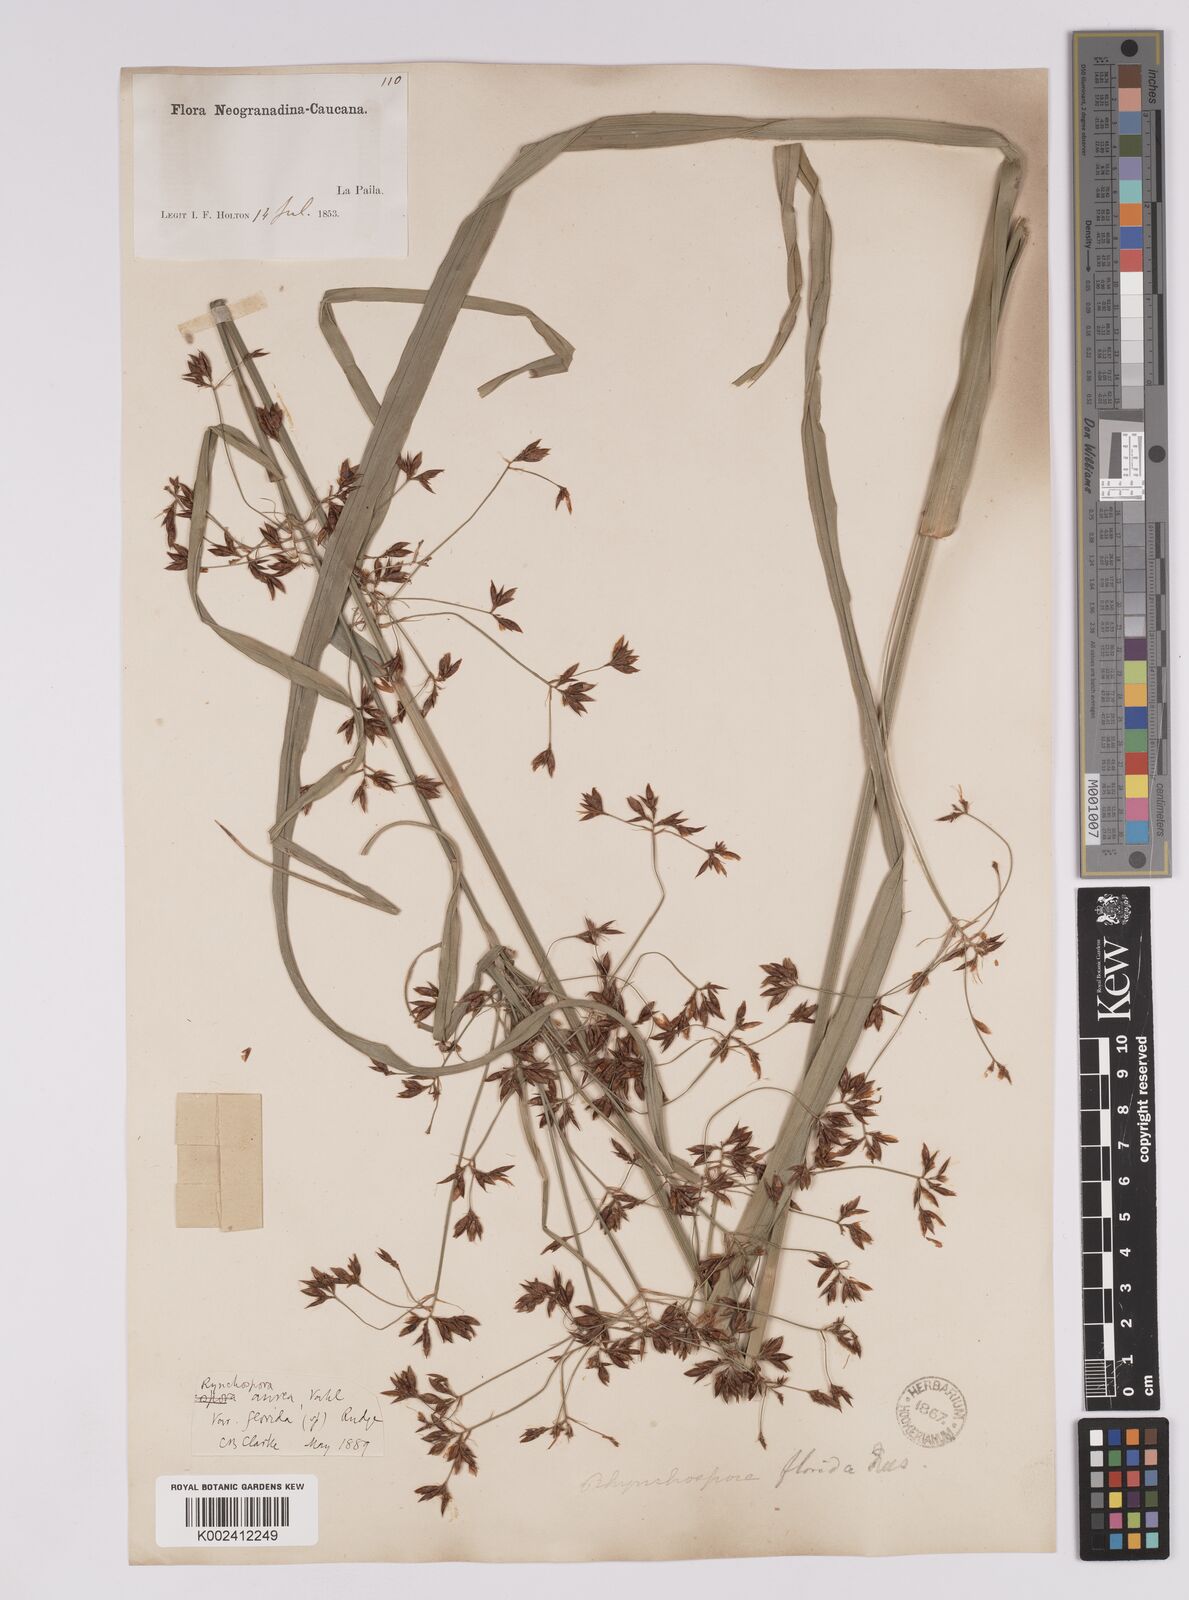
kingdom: Plantae
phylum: Tracheophyta
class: Liliopsida
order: Poales
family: Cyperaceae
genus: Rhynchospora
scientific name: Rhynchospora corymbosa
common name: Golden beak sedge
